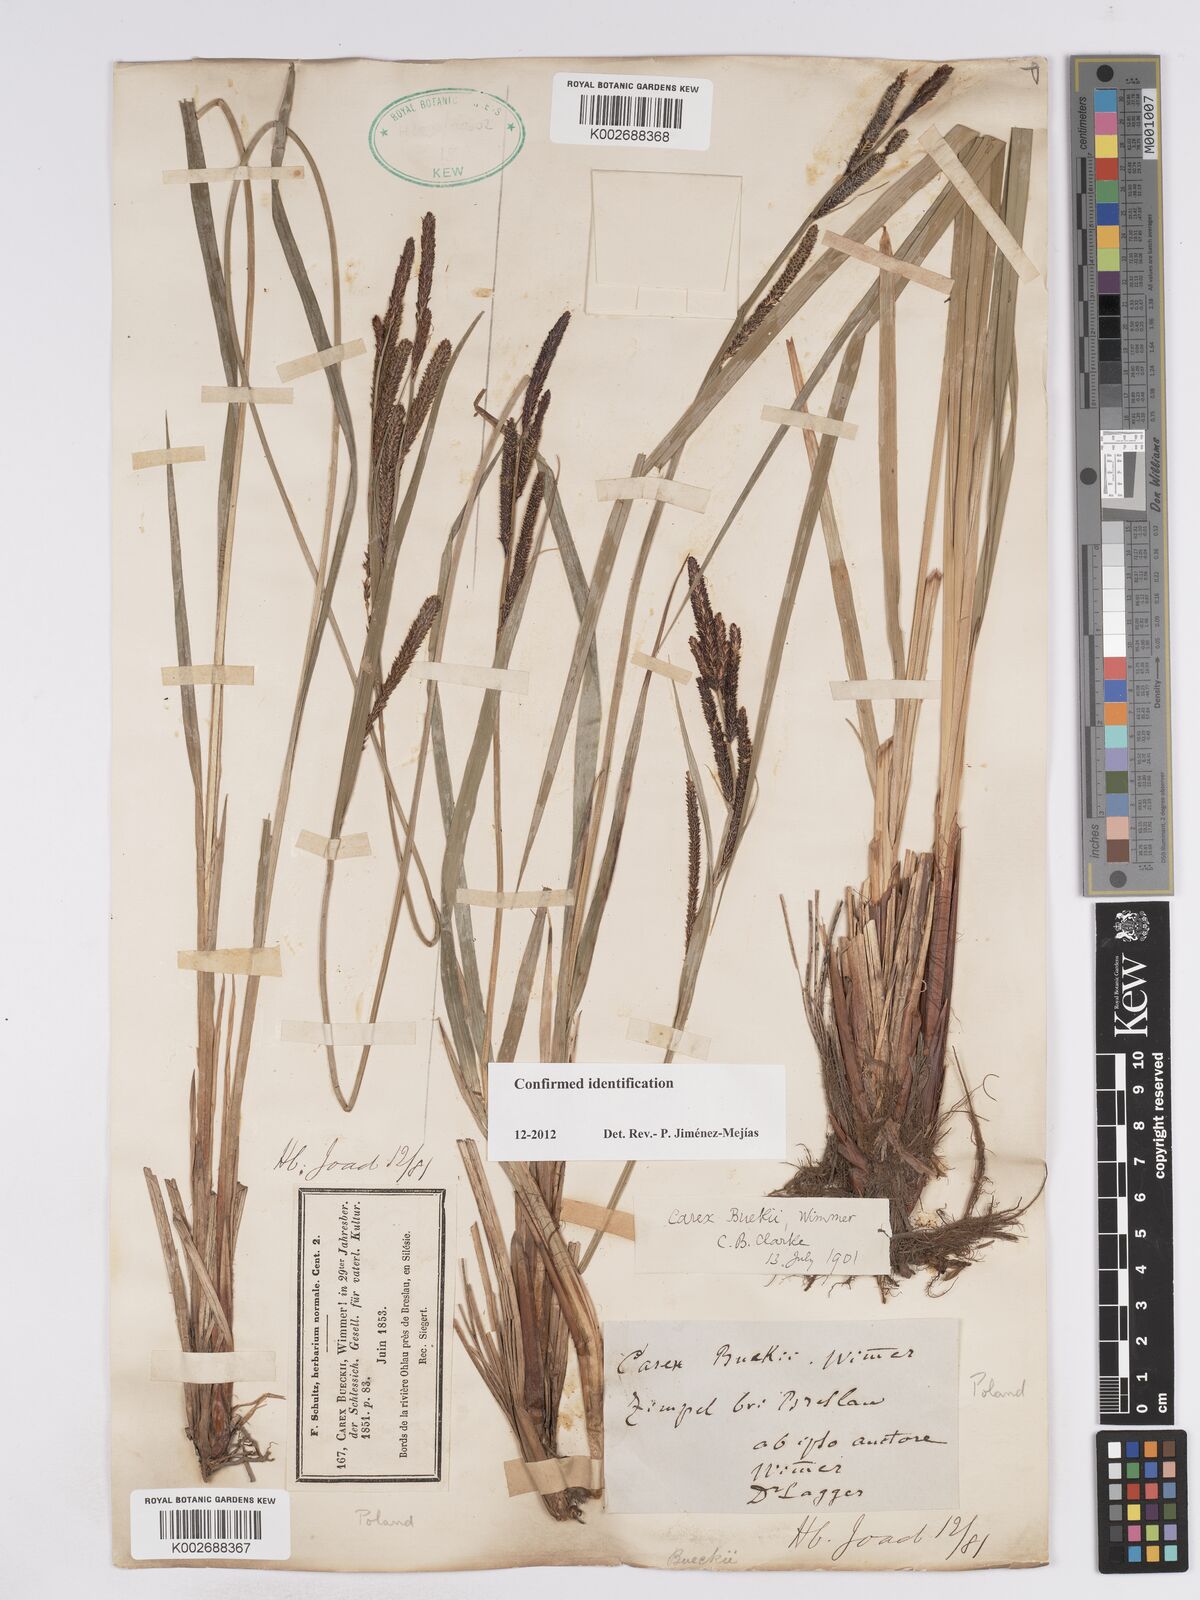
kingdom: Plantae
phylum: Tracheophyta
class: Liliopsida
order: Poales
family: Cyperaceae
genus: Carex
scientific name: Carex buekii
